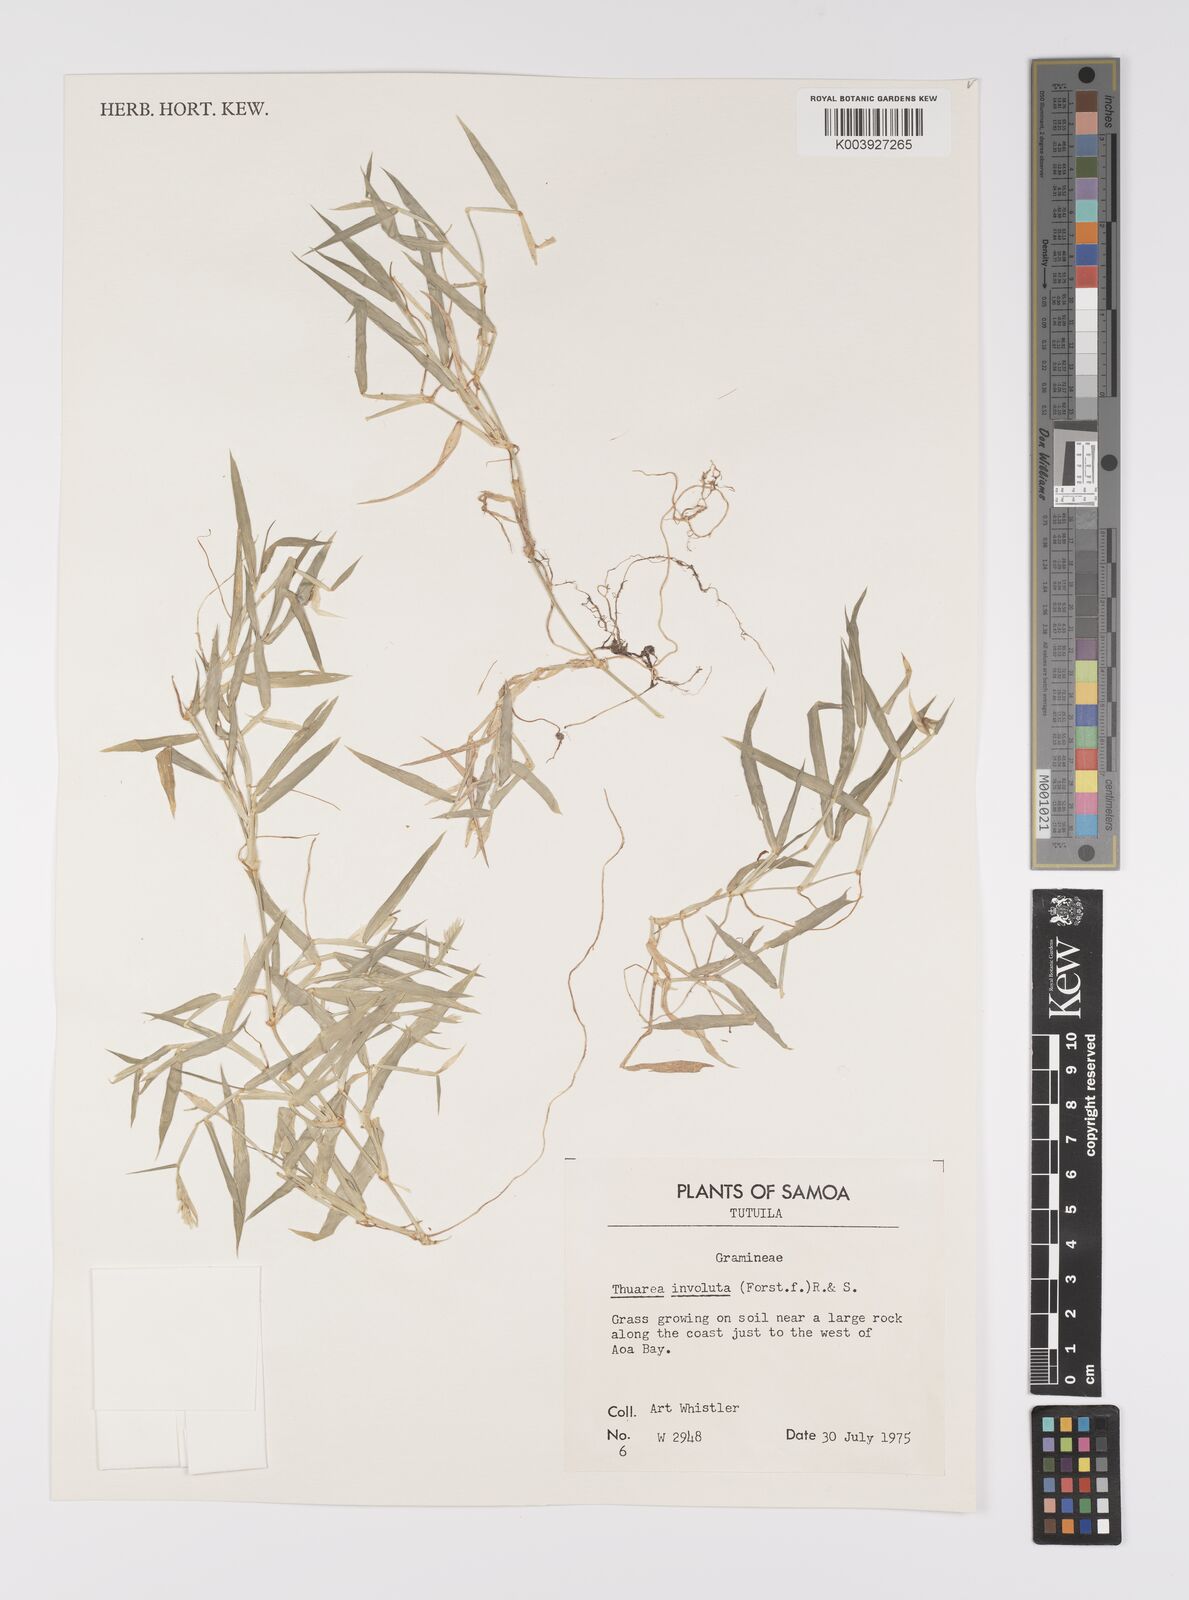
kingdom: Plantae
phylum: Tracheophyta
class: Liliopsida
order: Poales
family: Poaceae
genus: Thuarea
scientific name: Thuarea involuta
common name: Tropical beach grass
